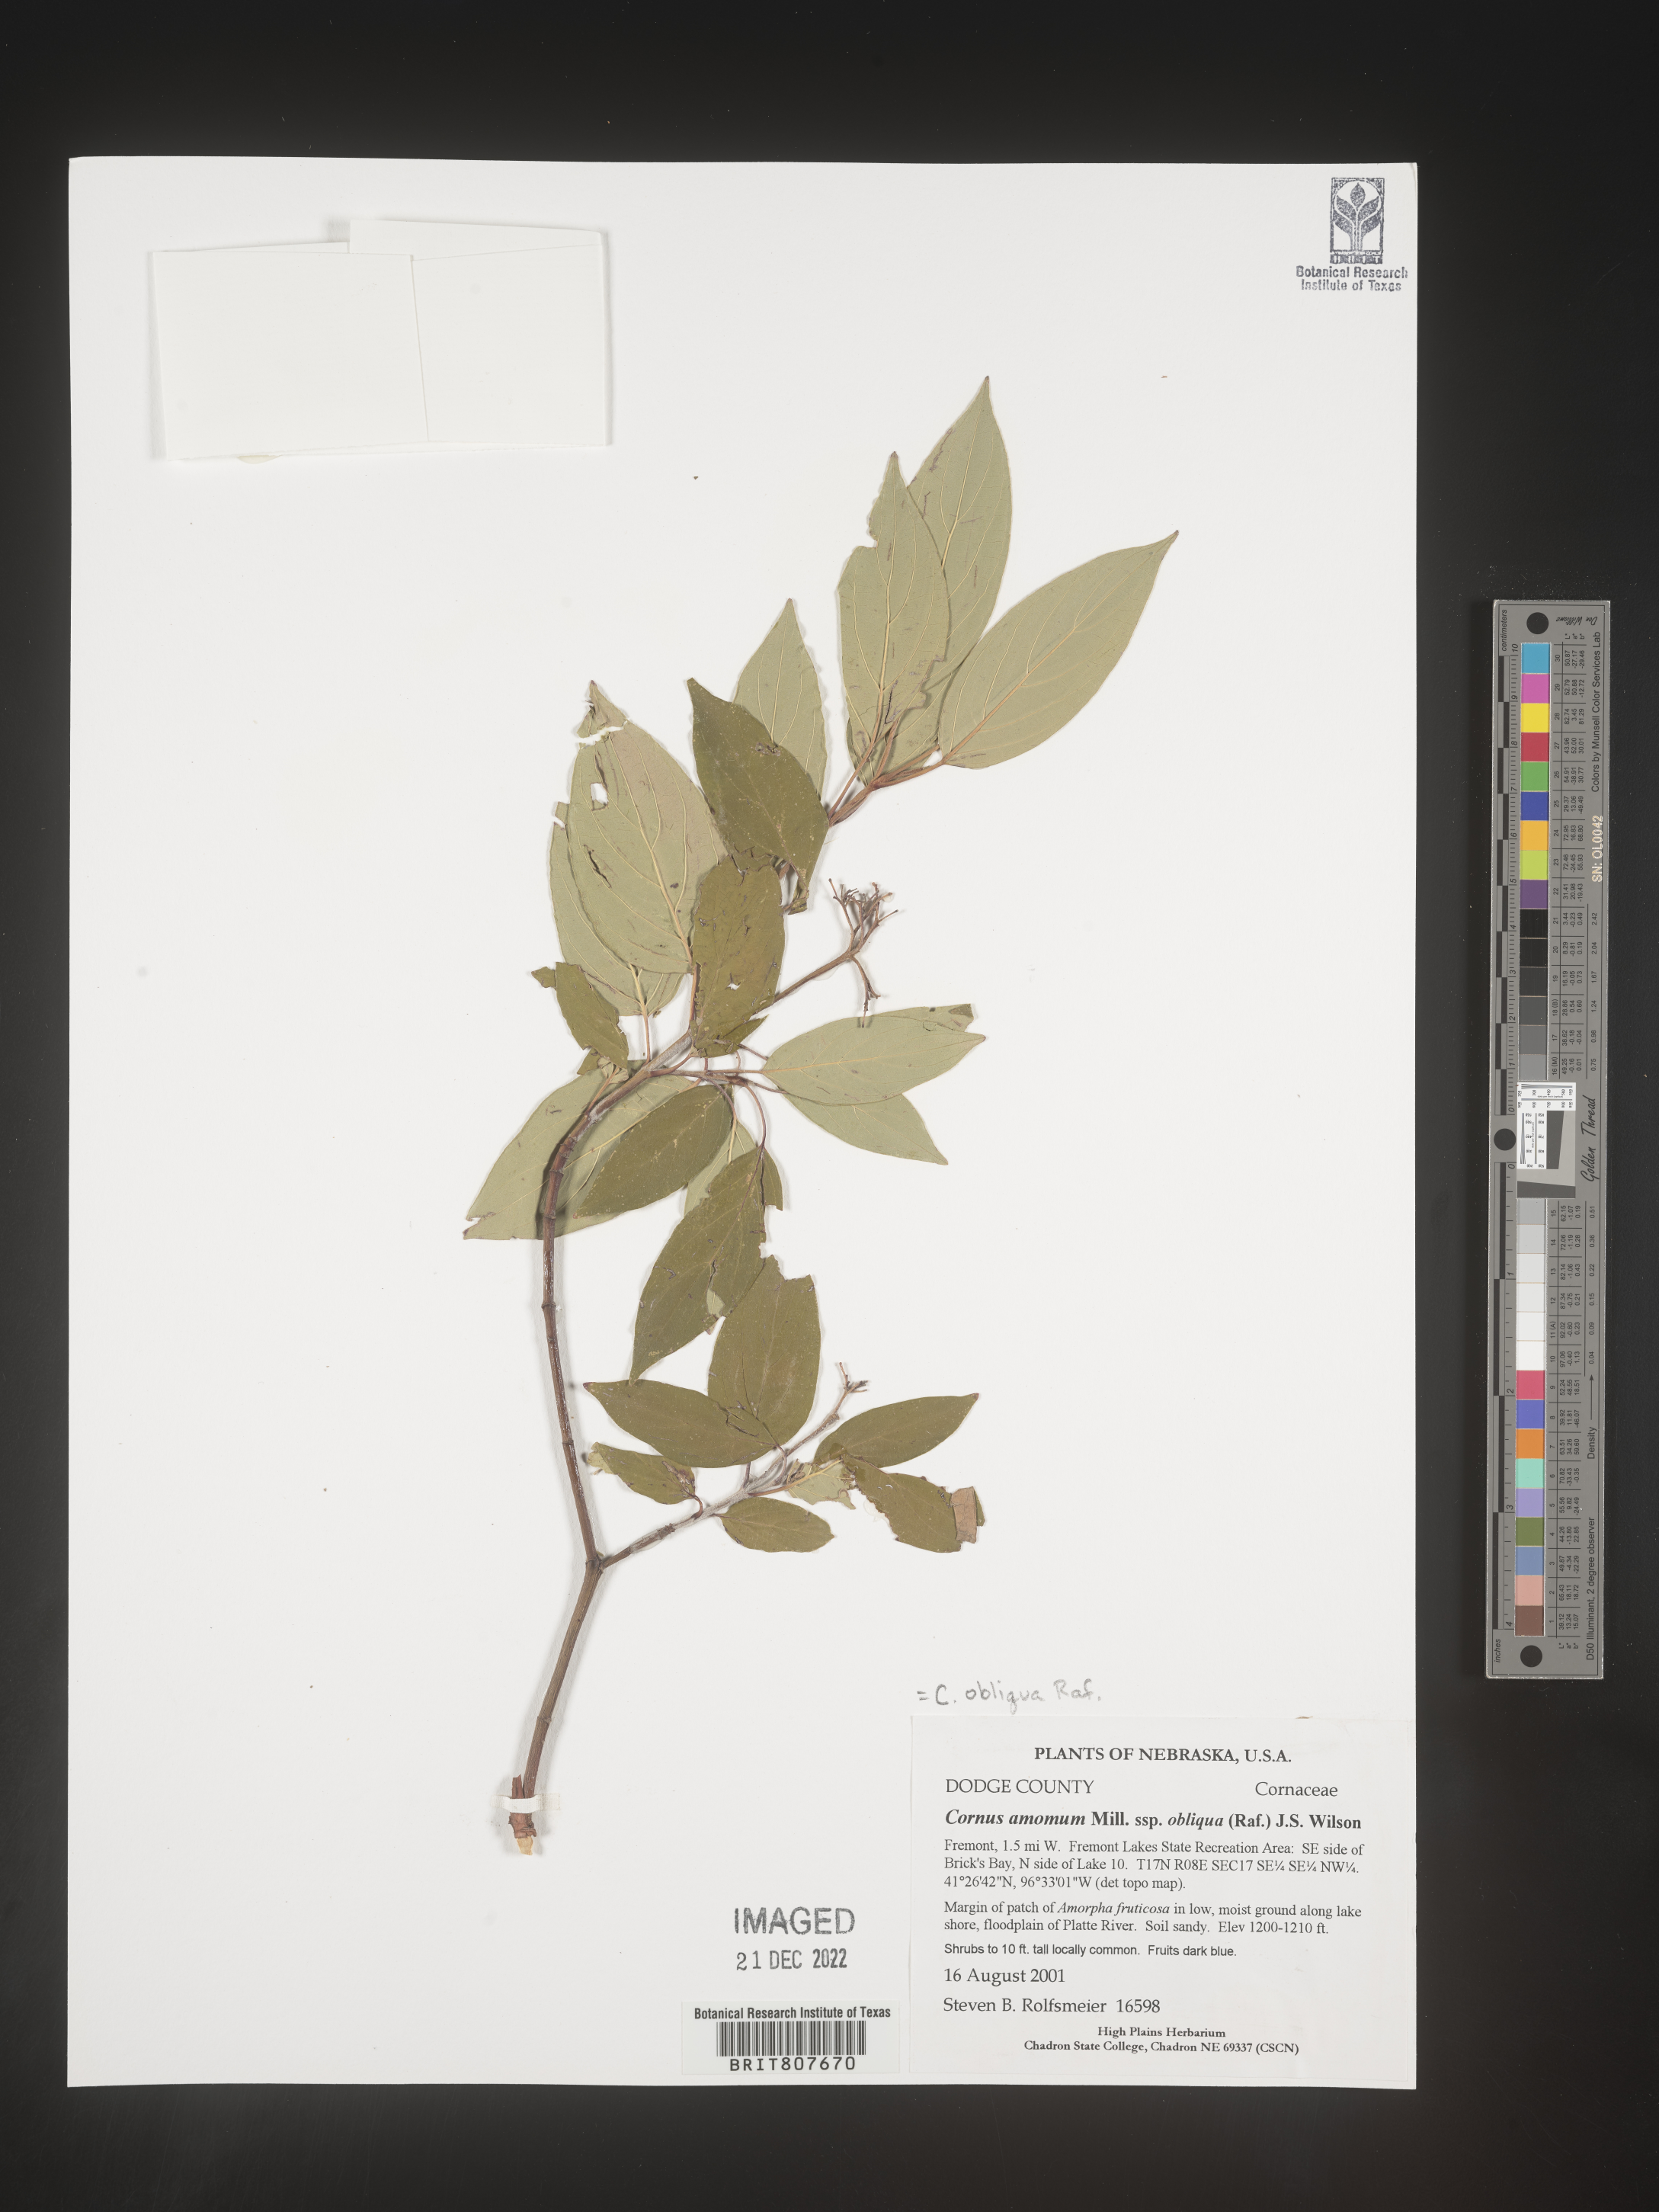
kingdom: Plantae
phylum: Tracheophyta
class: Magnoliopsida
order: Cornales
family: Cornaceae
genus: Cornus
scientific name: Cornus obliqua
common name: Pale dogwood
